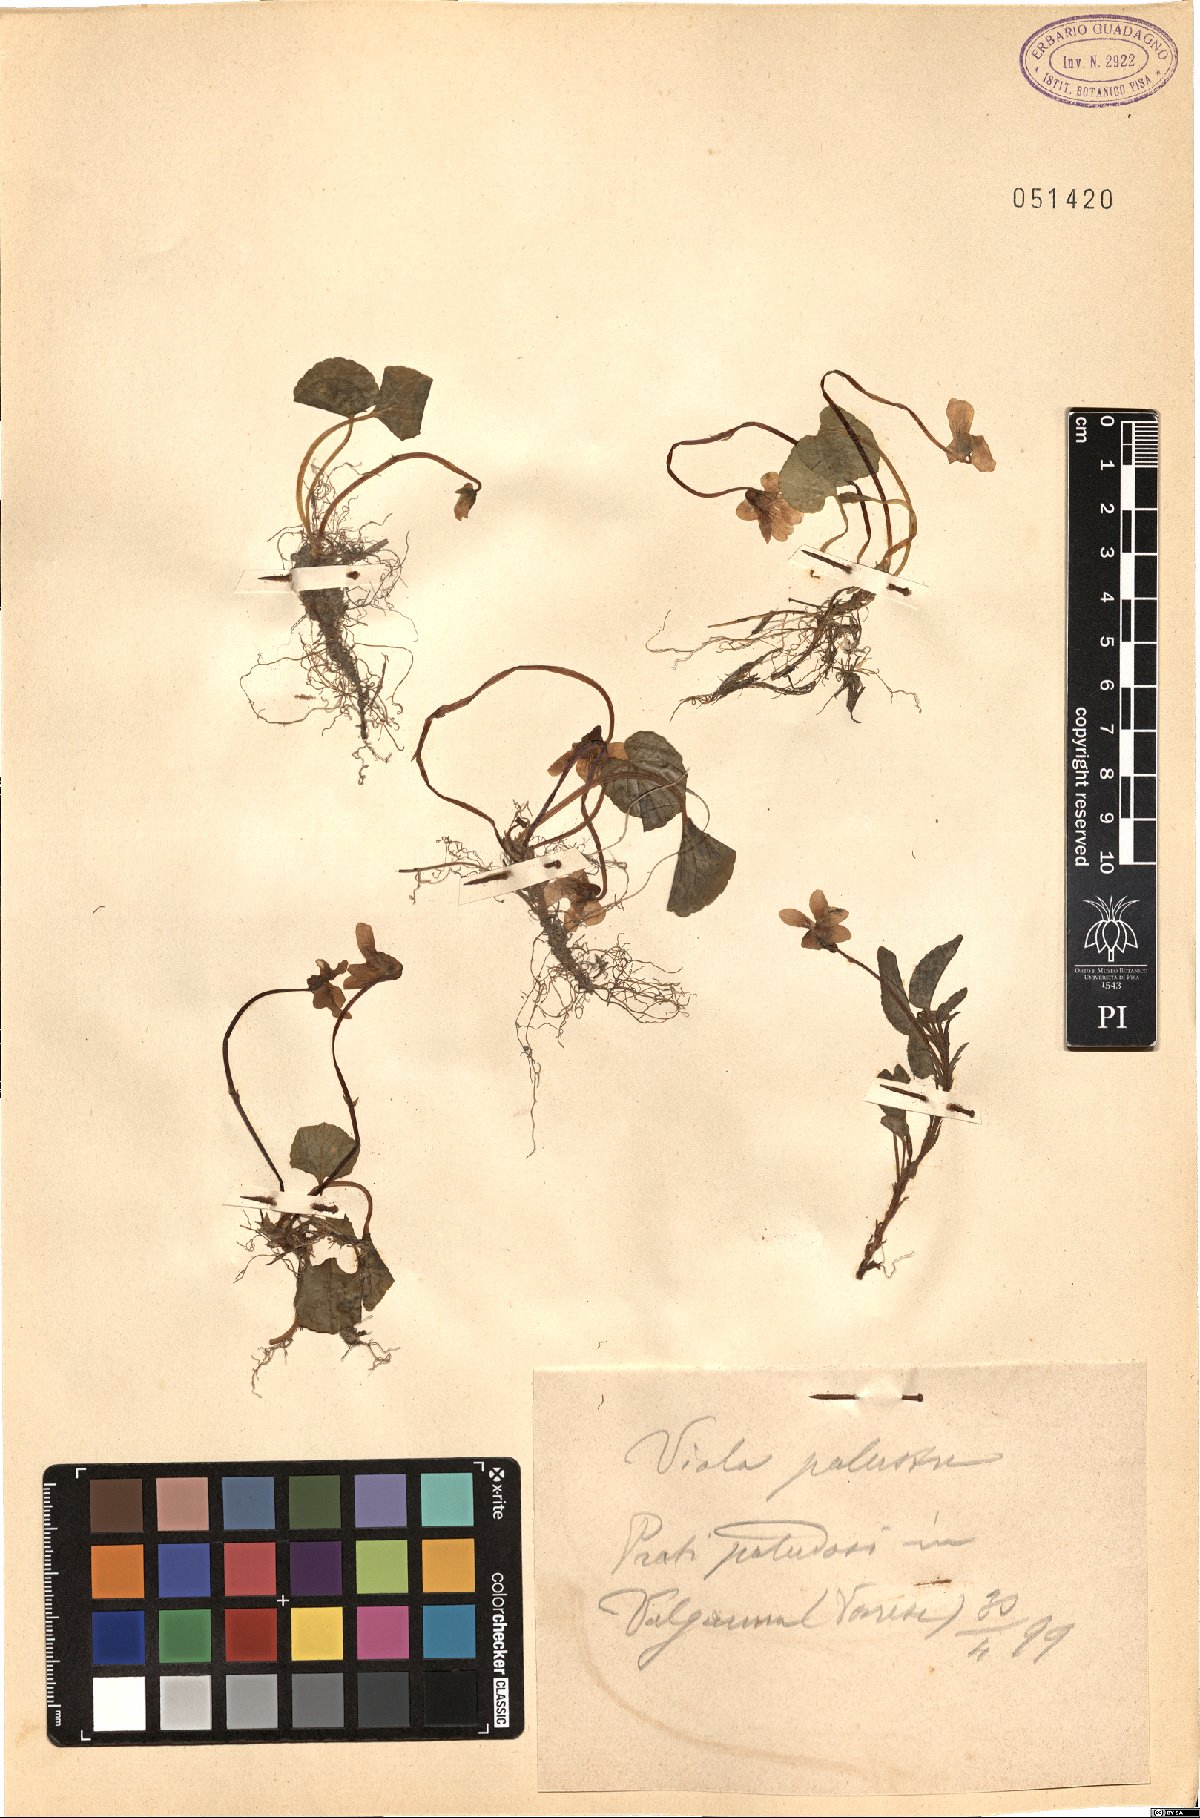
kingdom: Plantae
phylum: Tracheophyta
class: Magnoliopsida
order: Malpighiales
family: Violaceae
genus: Viola
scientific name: Viola palustris
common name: Marsh violet
